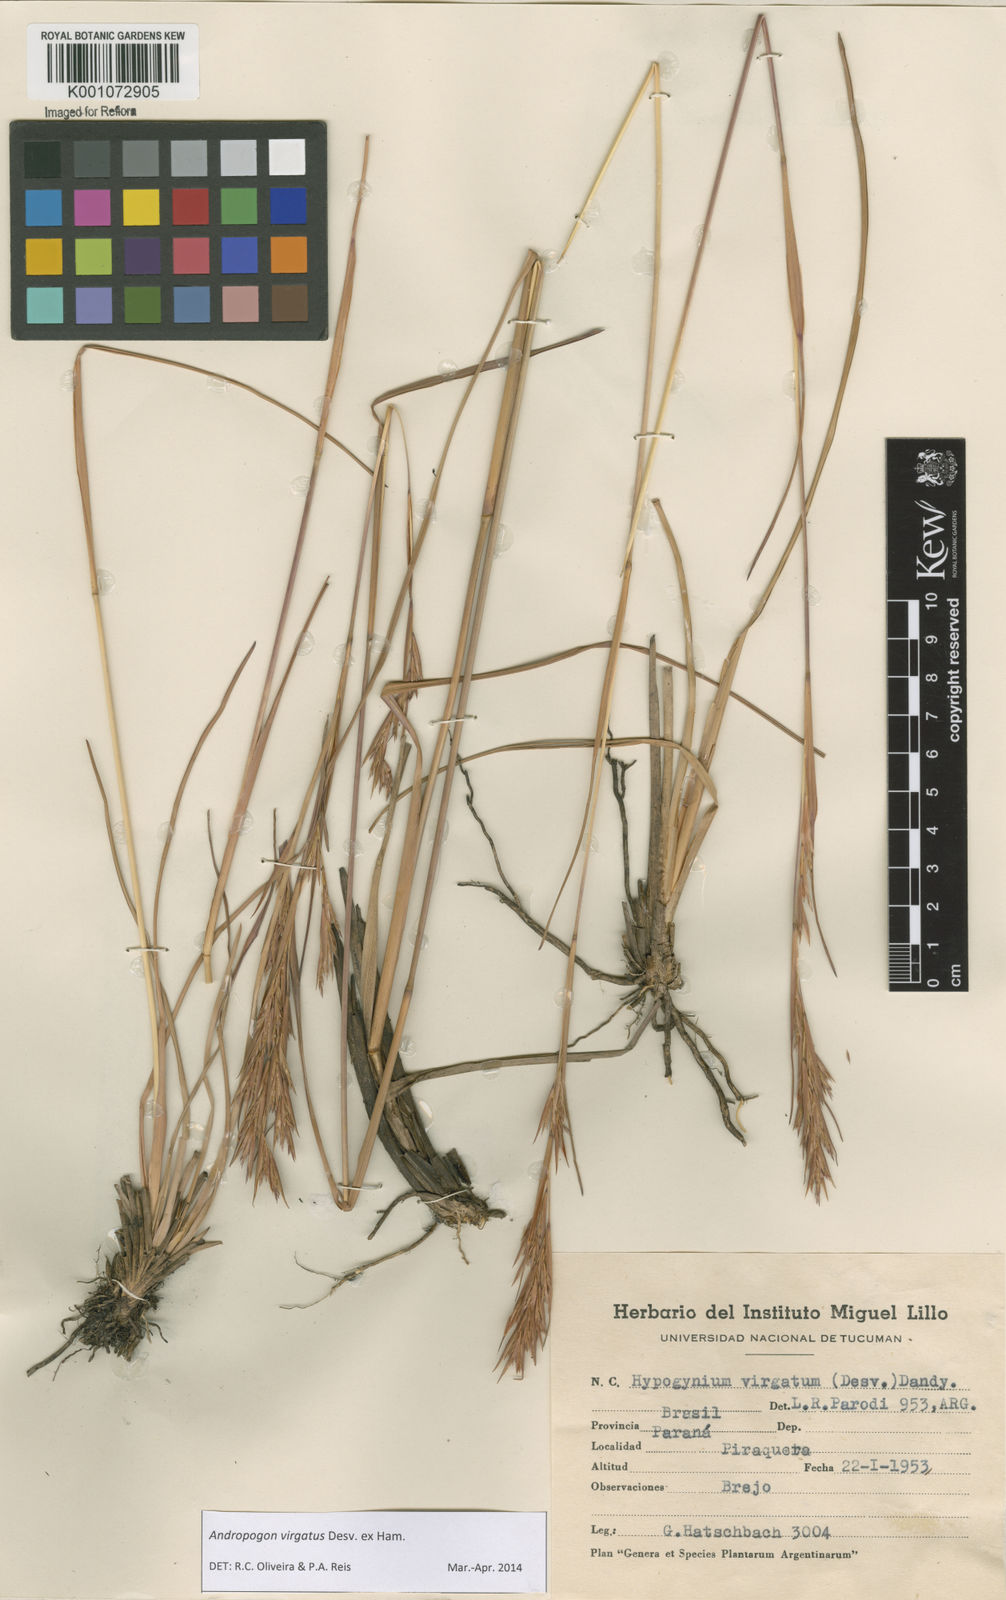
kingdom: Plantae
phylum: Tracheophyta
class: Liliopsida
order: Poales
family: Poaceae
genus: Andropogon
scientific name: Andropogon virgatus
